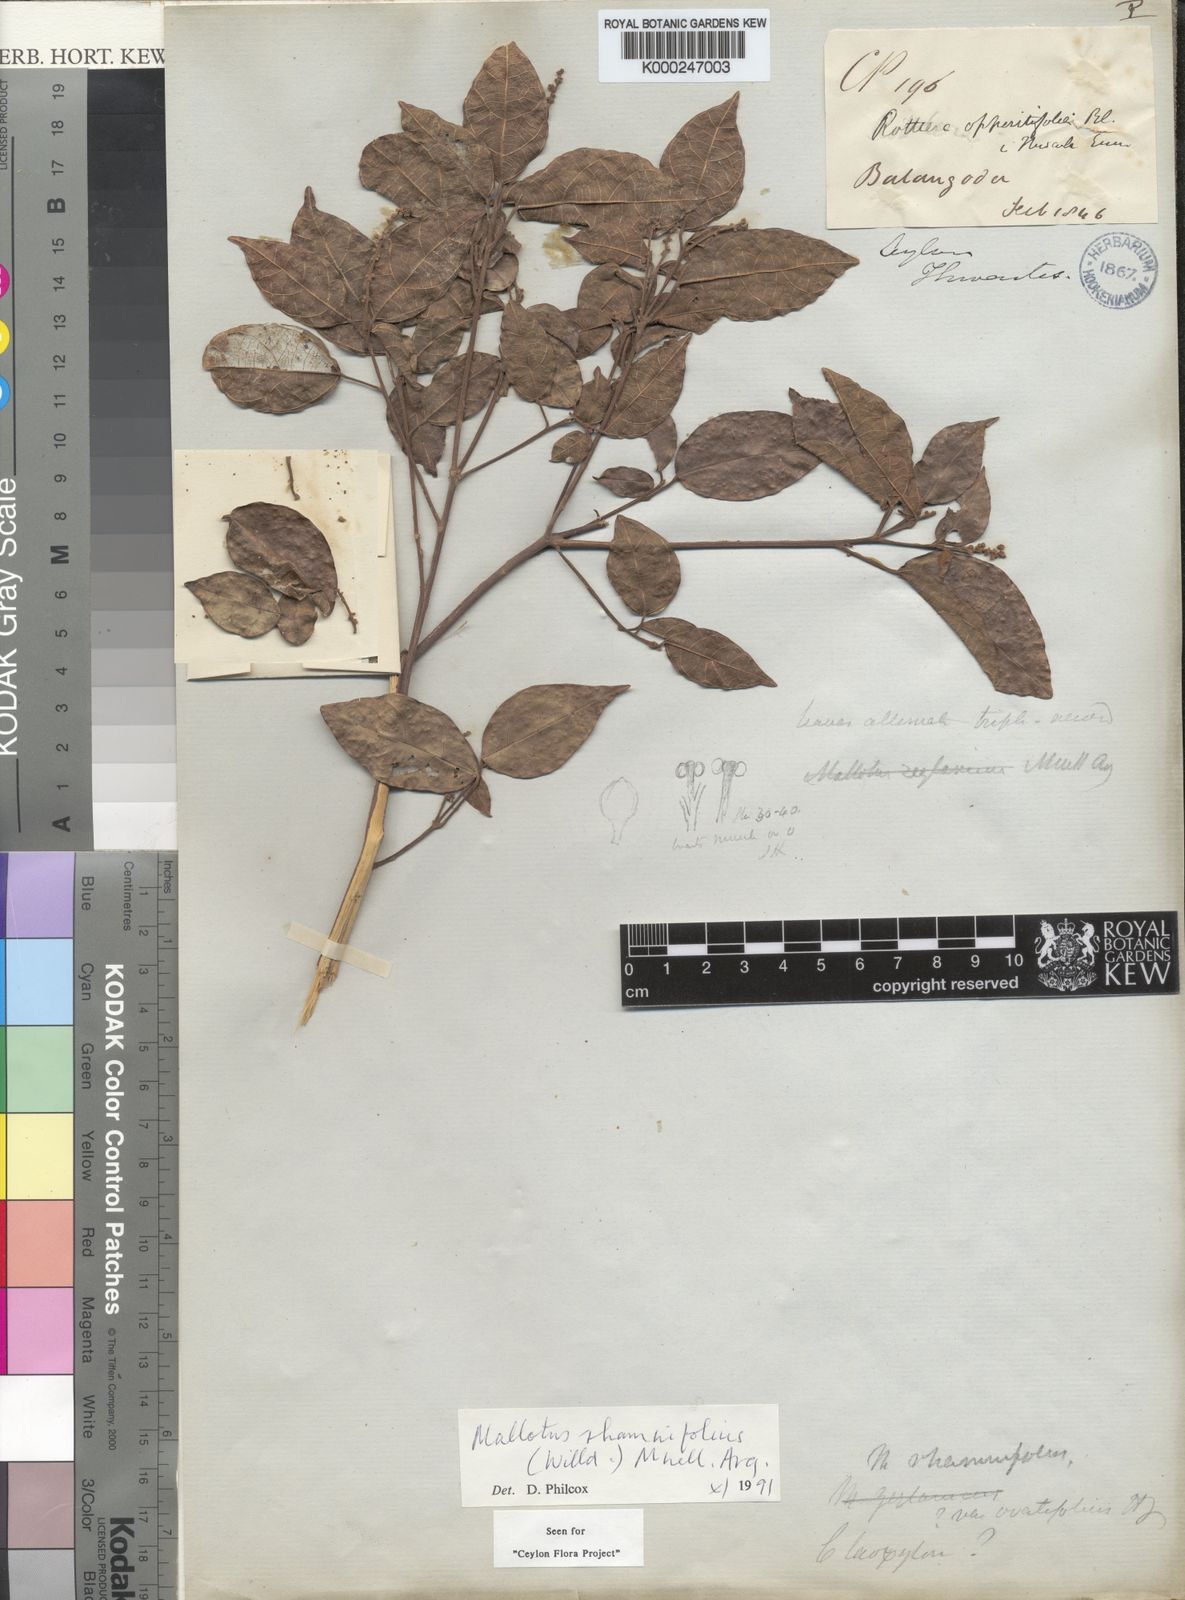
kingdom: Plantae
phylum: Tracheophyta
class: Magnoliopsida
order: Malpighiales
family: Euphorbiaceae
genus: Mallotus
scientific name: Mallotus
